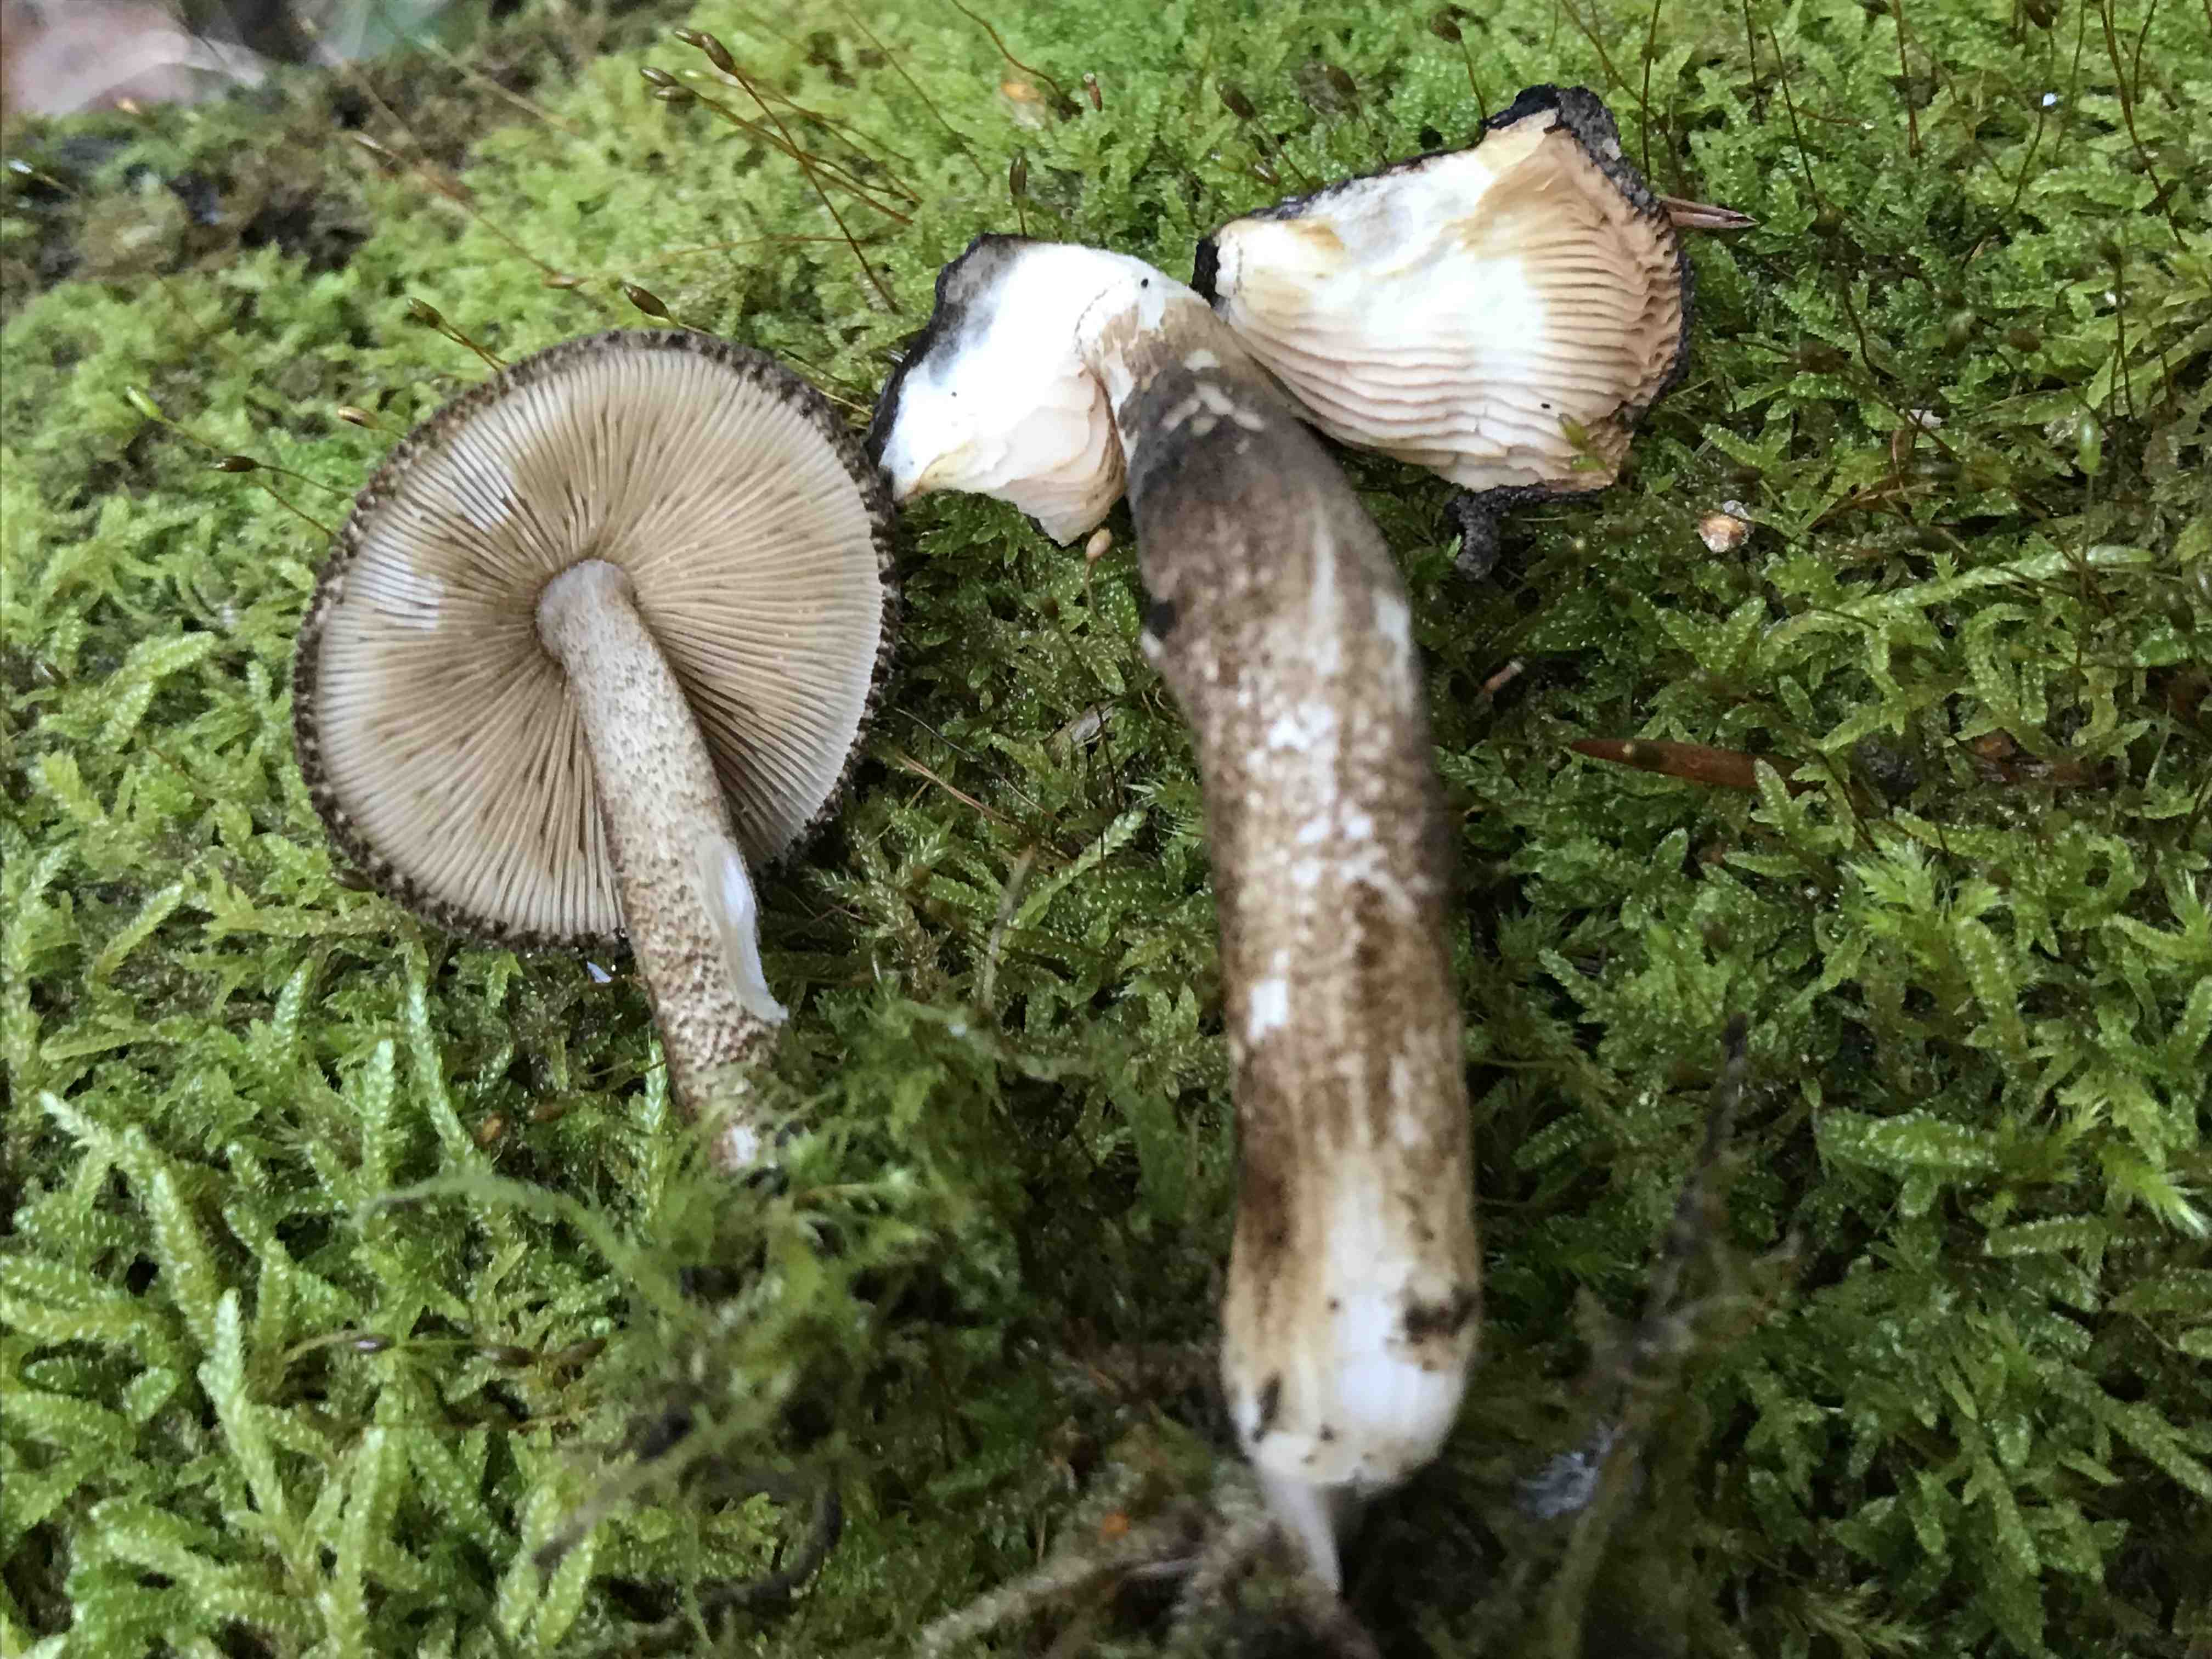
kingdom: Fungi
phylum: Basidiomycota
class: Agaricomycetes
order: Agaricales
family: Pluteaceae
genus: Pluteus
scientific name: Pluteus umbrosus
